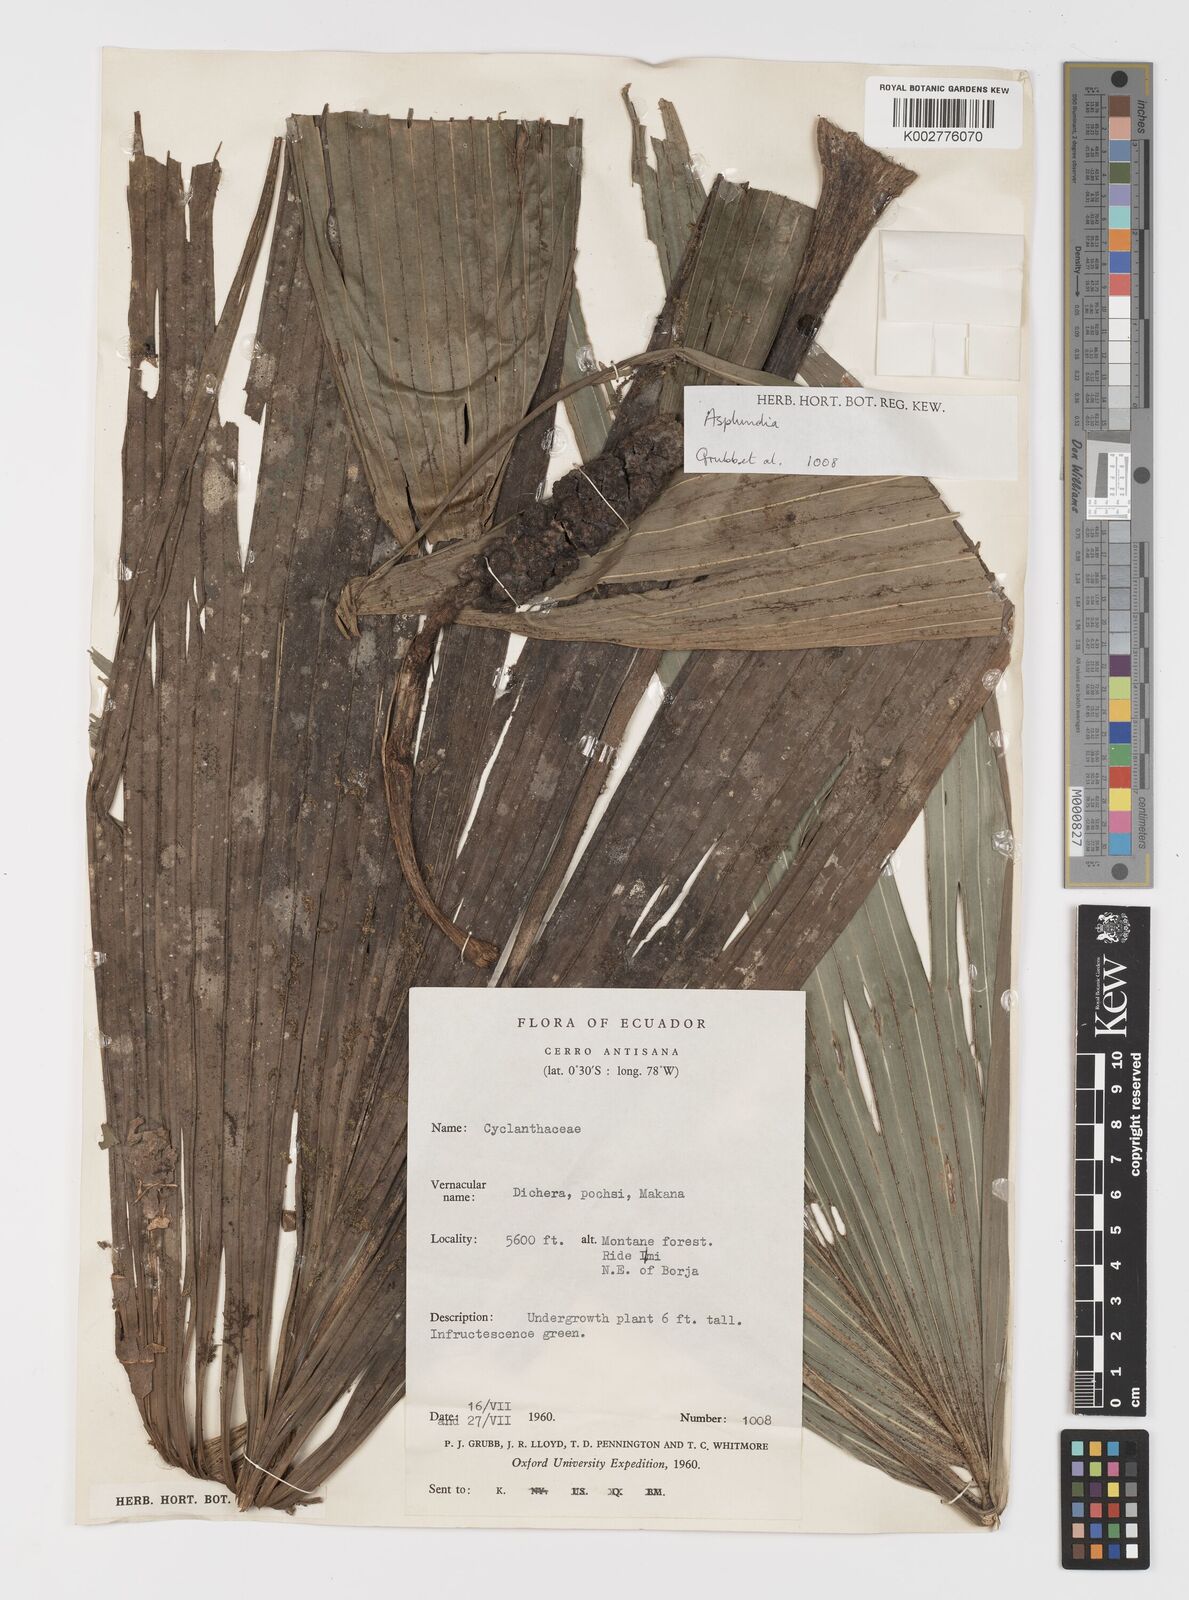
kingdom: Plantae
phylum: Tracheophyta
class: Liliopsida
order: Pandanales
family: Cyclanthaceae
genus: Asplundia
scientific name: Asplundia
